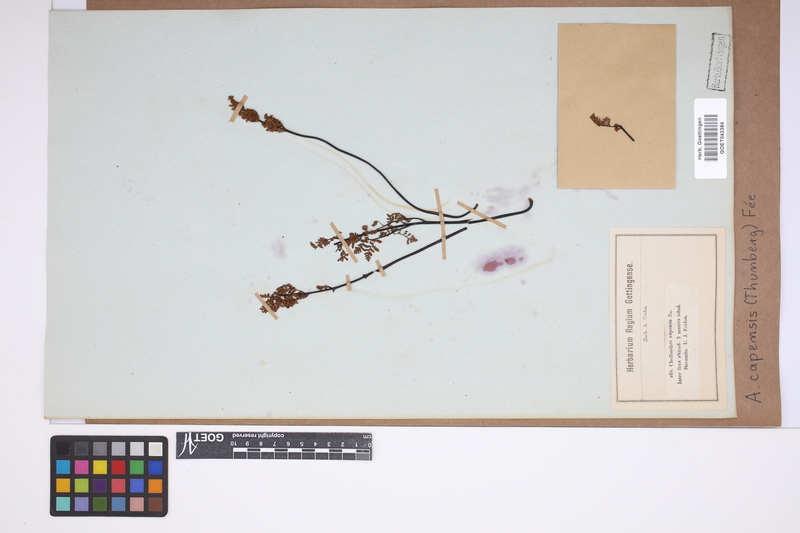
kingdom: Plantae
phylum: Tracheophyta
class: Polypodiopsida
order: Polypodiales
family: Pteridaceae
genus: Cheilanthes
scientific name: Cheilanthes capensis
